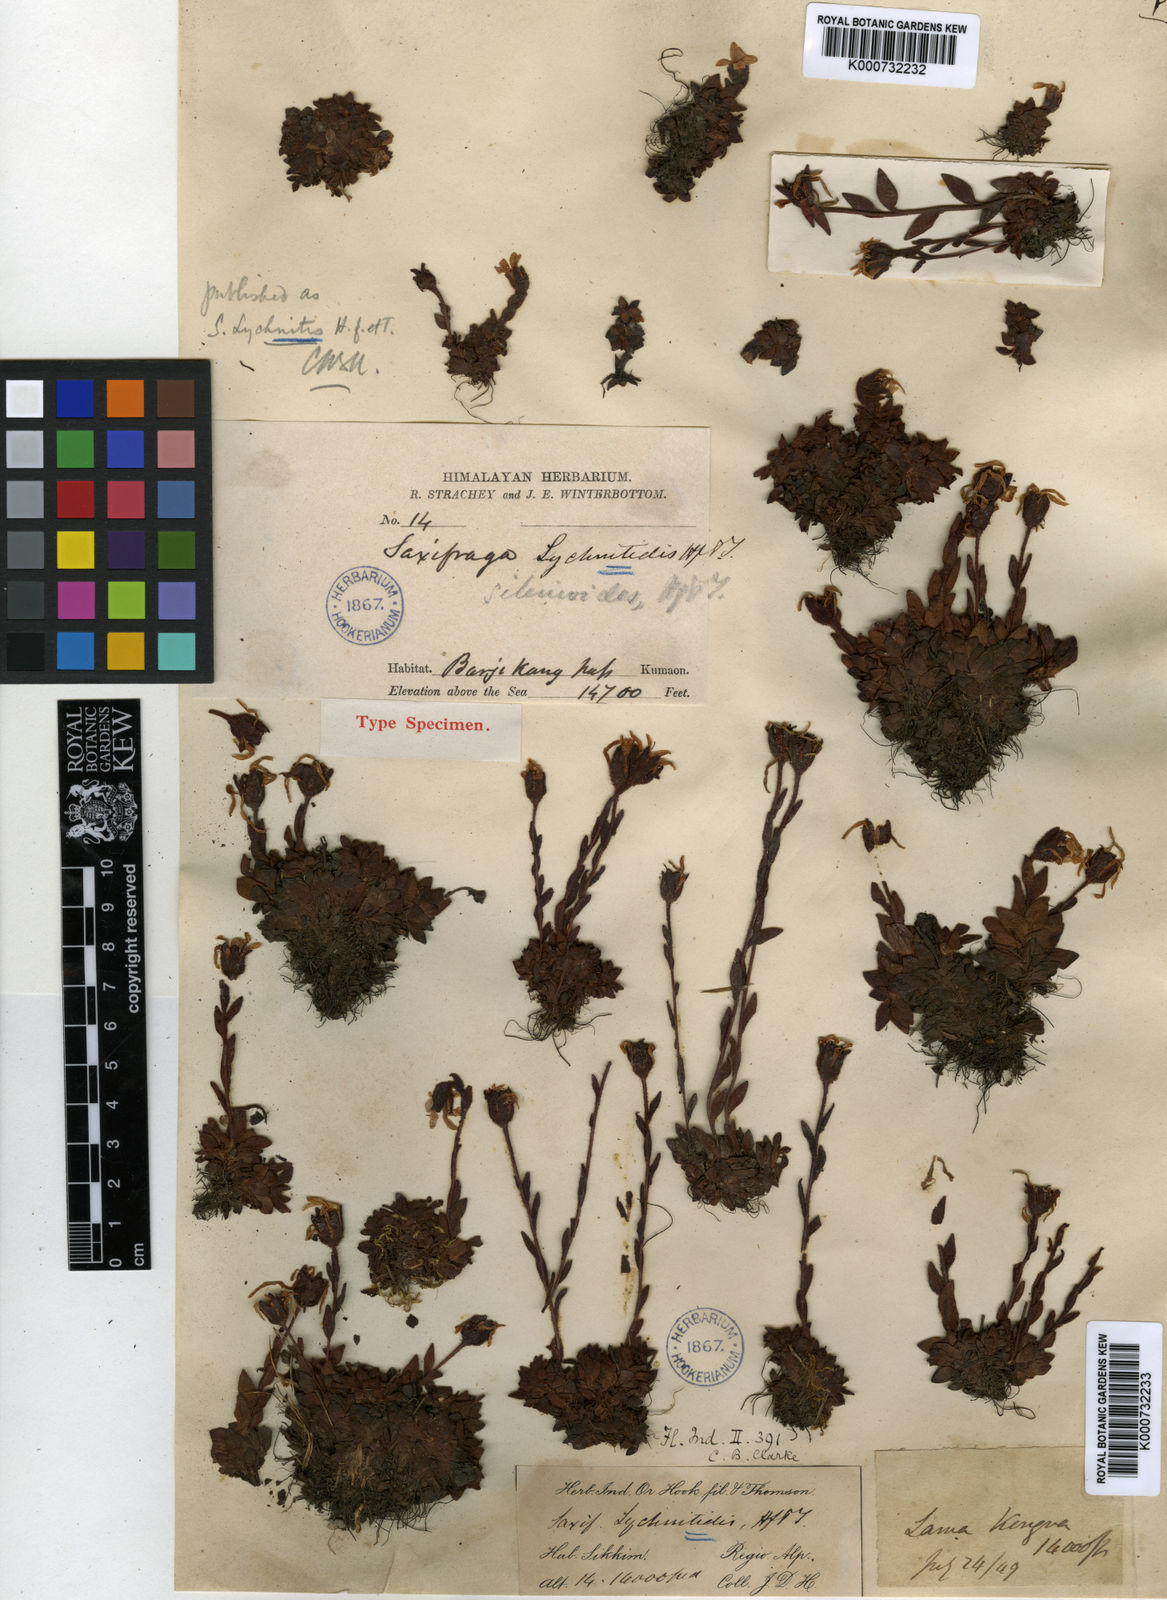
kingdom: Plantae
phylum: Tracheophyta
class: Magnoliopsida
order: Saxifragales
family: Saxifragaceae
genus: Saxifraga
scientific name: Saxifraga lychnitis
